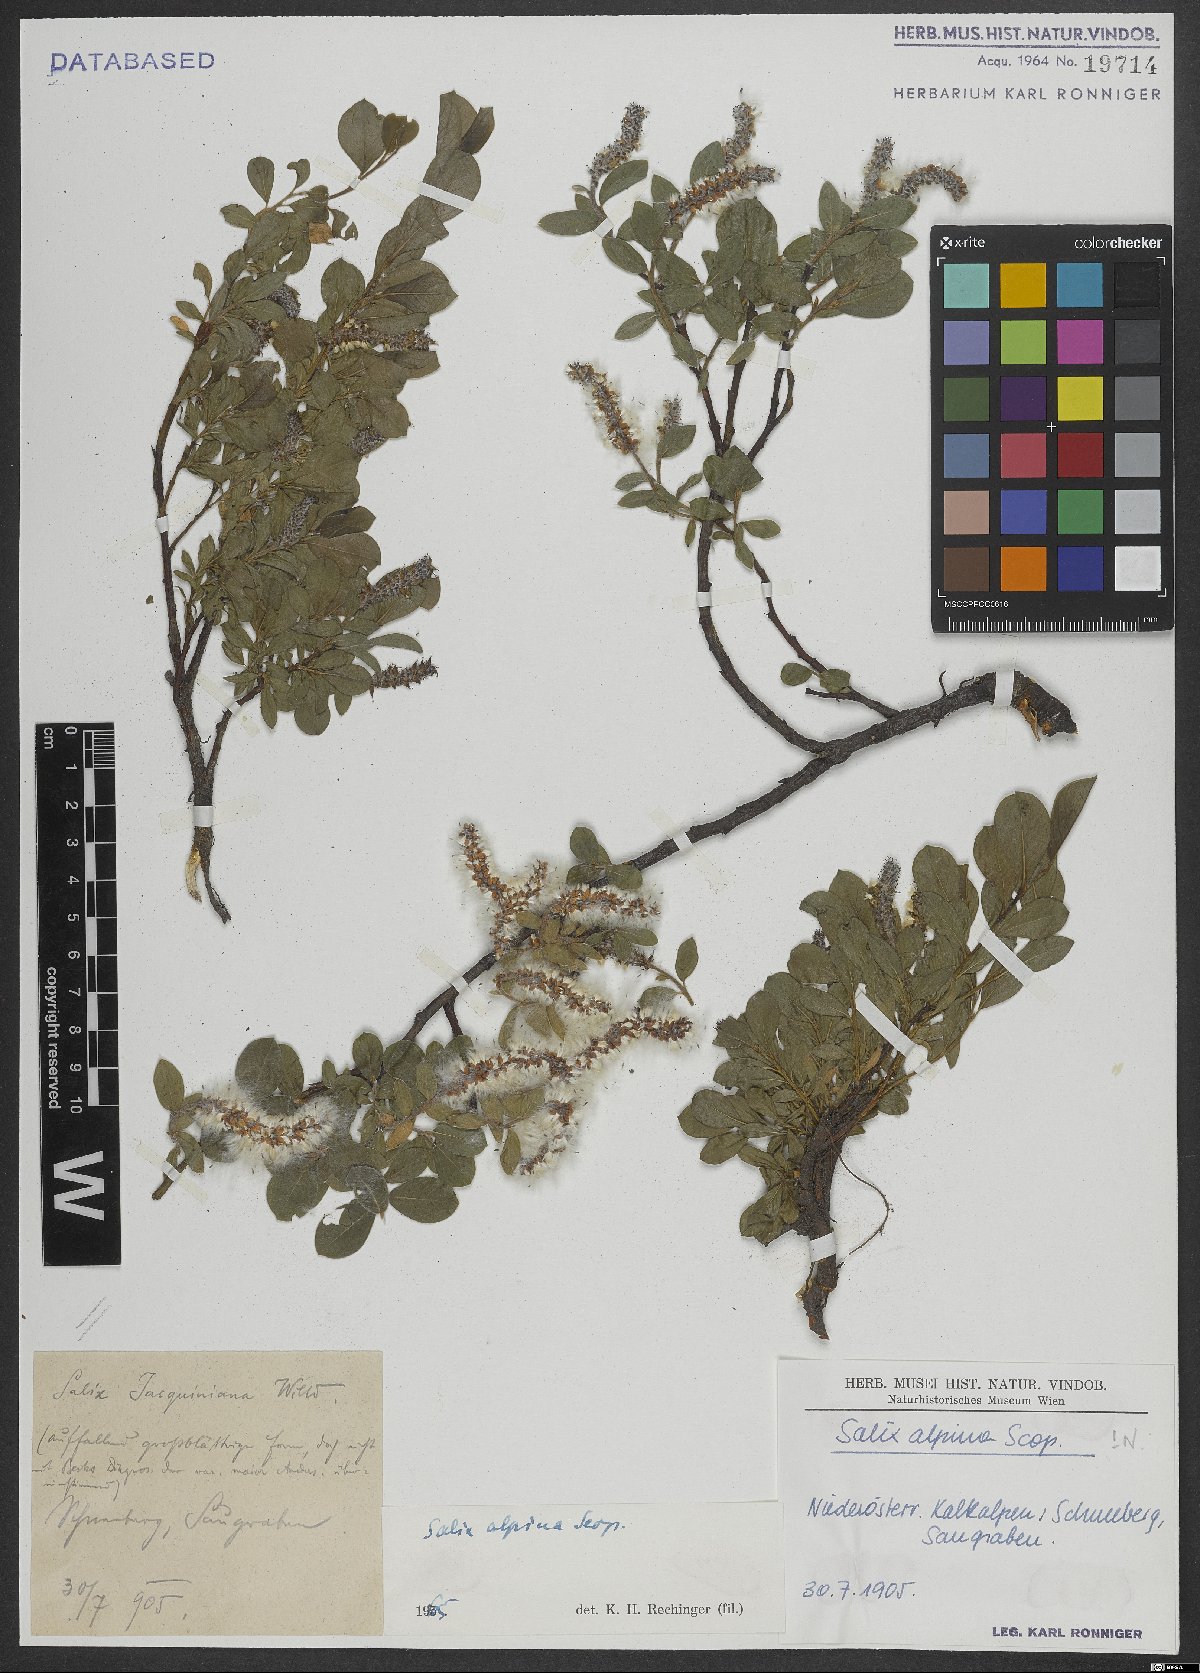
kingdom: Plantae
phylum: Tracheophyta
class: Magnoliopsida
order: Malpighiales
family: Salicaceae
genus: Salix
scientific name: Salix alpina
